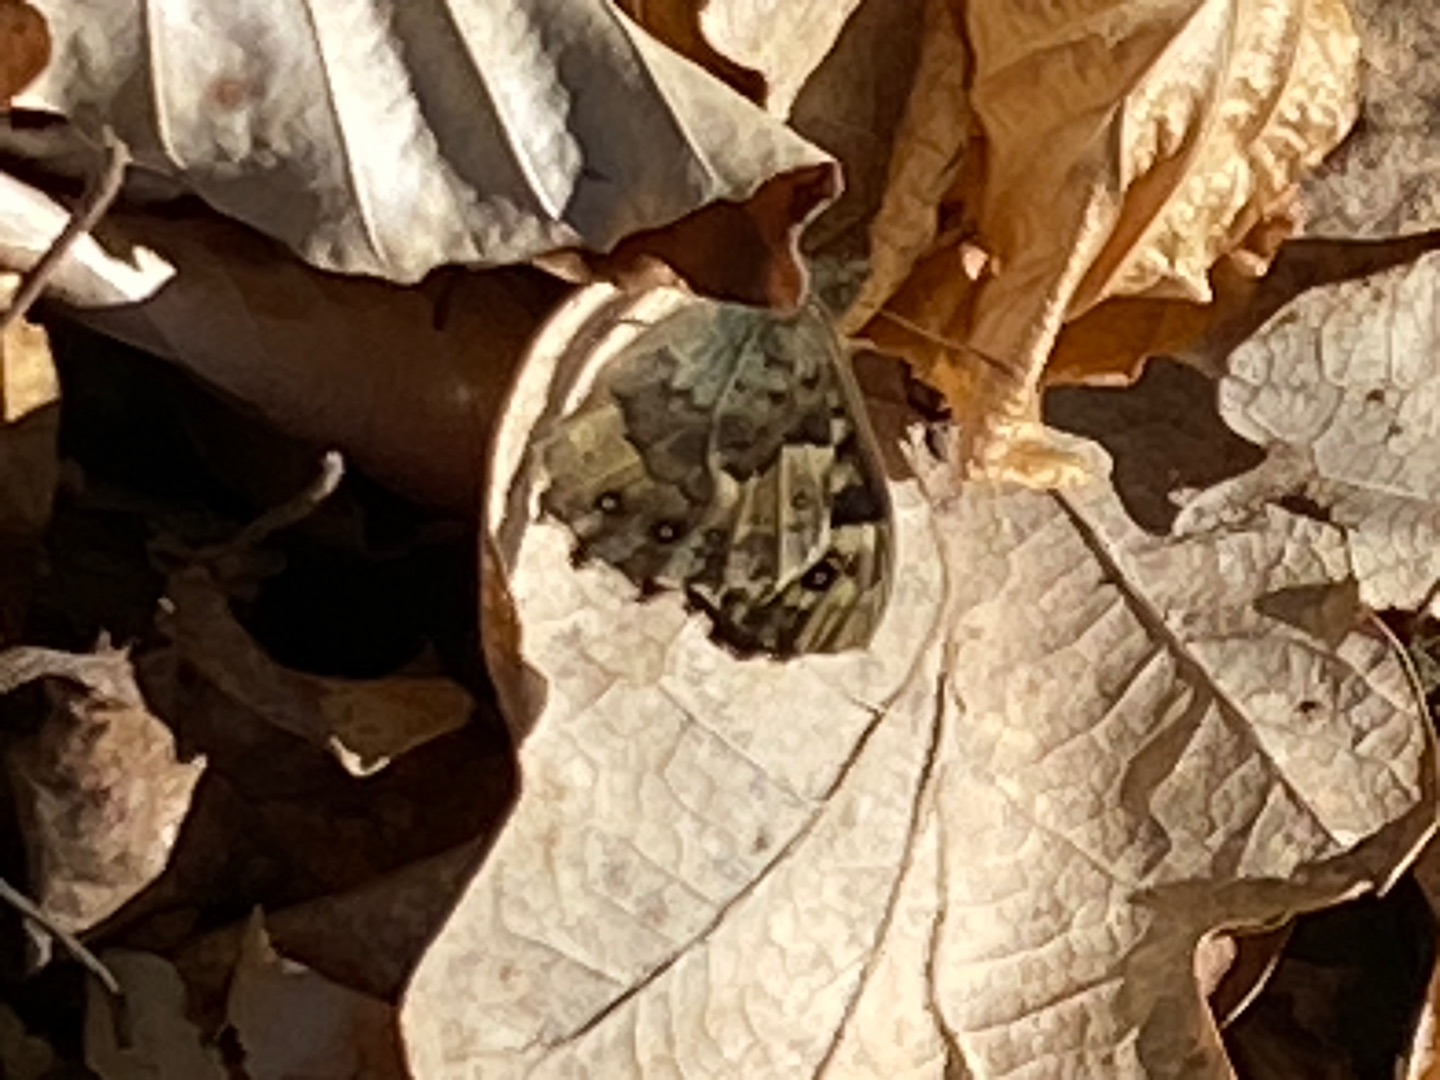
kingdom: Animalia
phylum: Arthropoda
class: Insecta
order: Lepidoptera
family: Nymphalidae
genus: Pararge
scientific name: Pararge aegeria
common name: Skovrandøje
